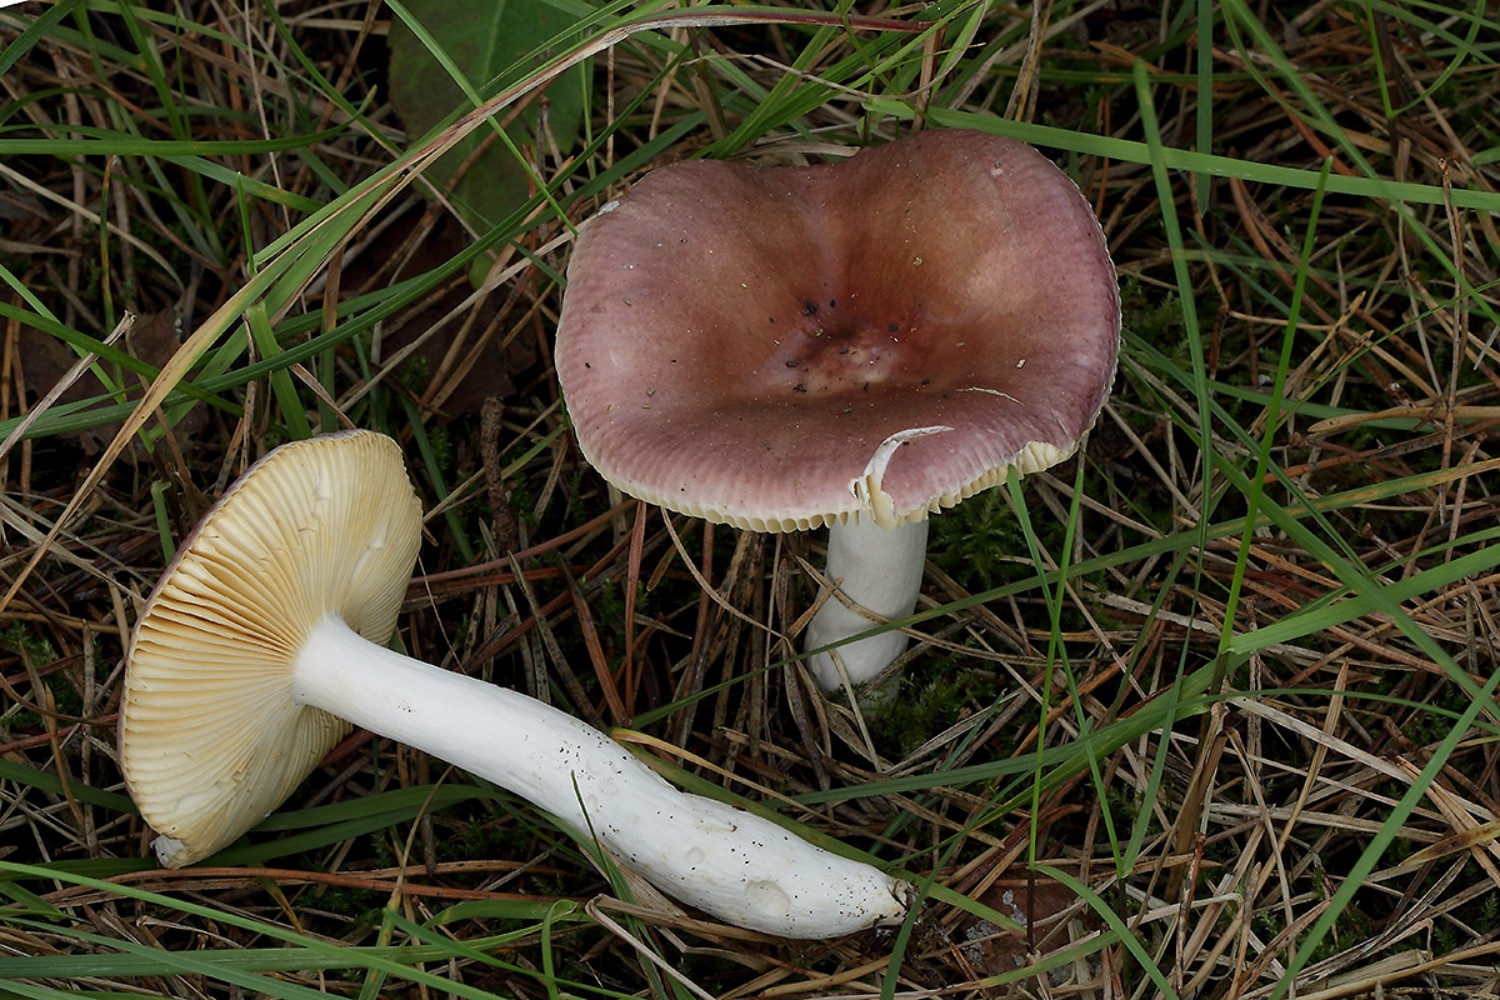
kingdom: Fungi
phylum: Basidiomycota
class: Agaricomycetes
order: Russulales
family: Russulaceae
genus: Russula
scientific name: Russula caerulea
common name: puklet skørhat
